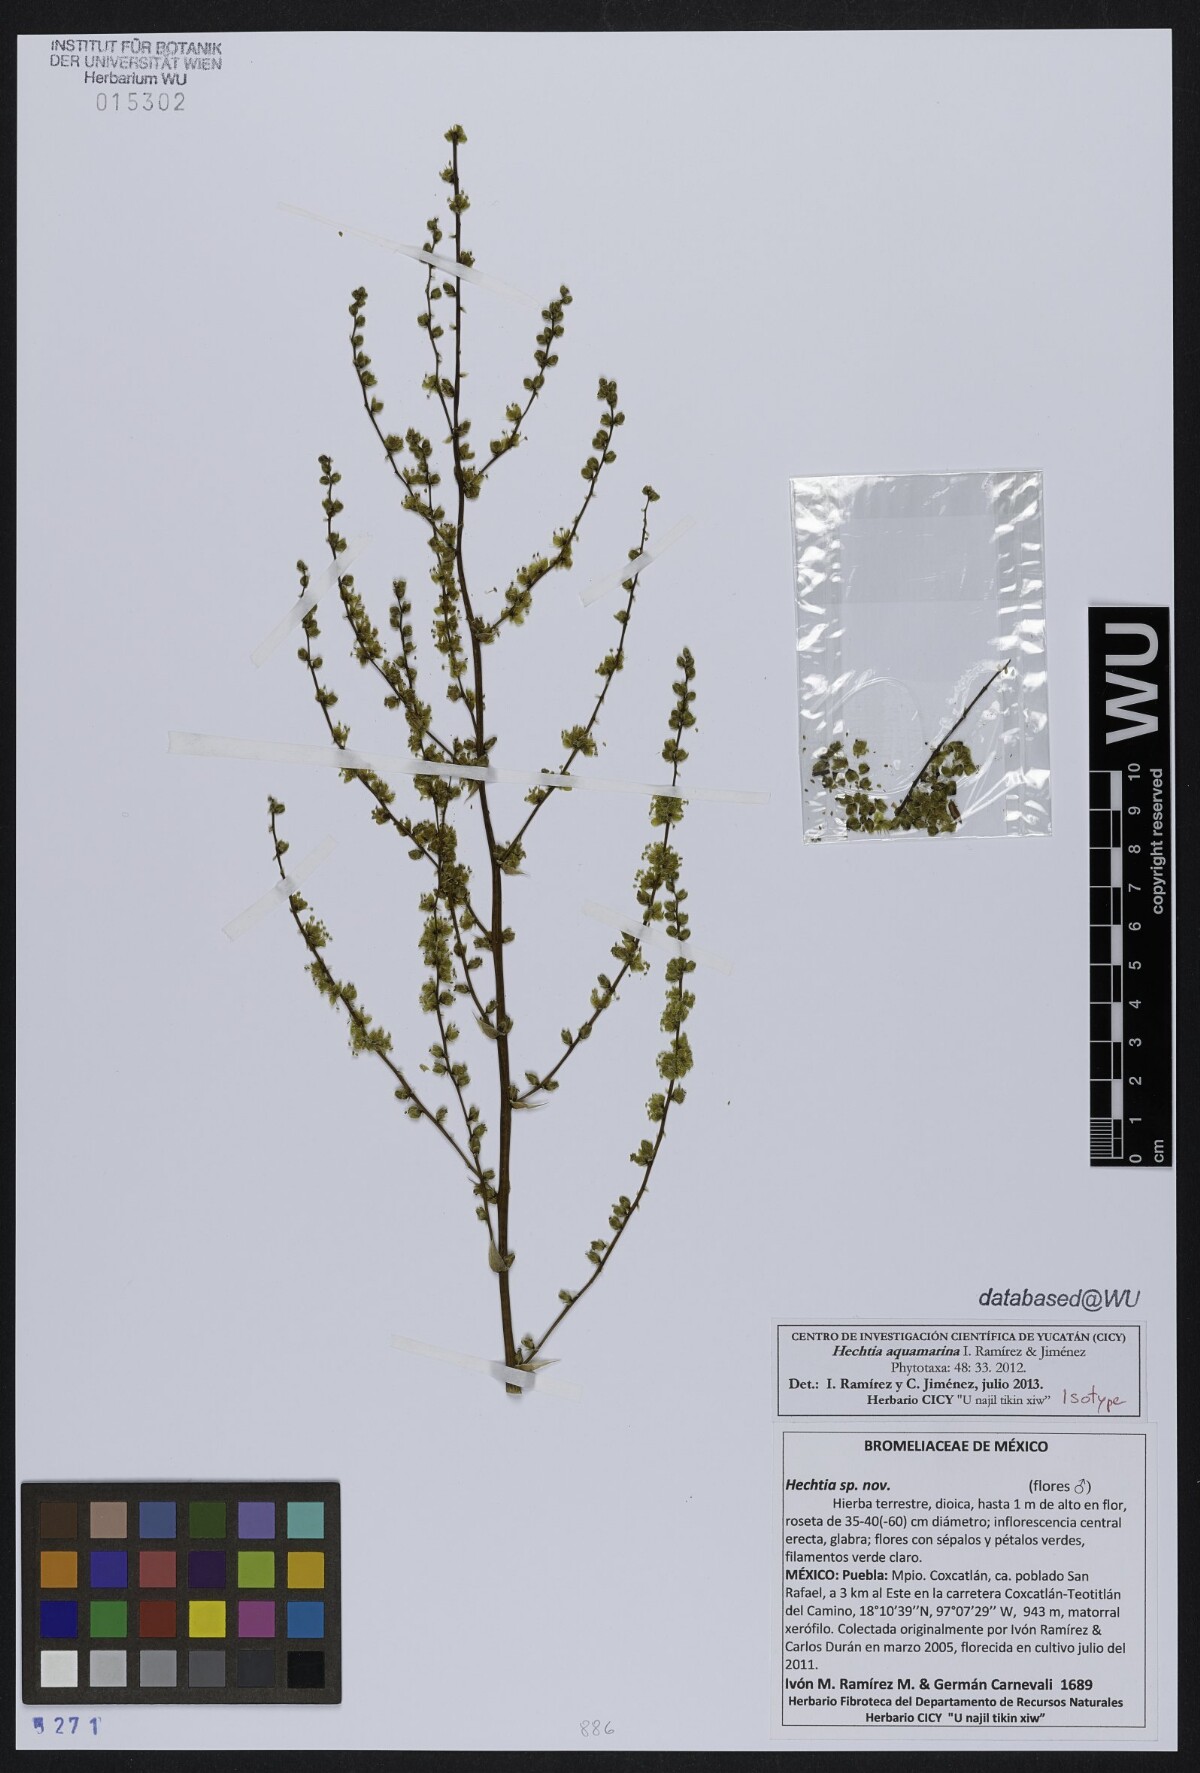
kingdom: Plantae
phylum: Tracheophyta
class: Liliopsida
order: Poales
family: Bromeliaceae
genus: Hechtia
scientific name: Hechtia aquamarina
